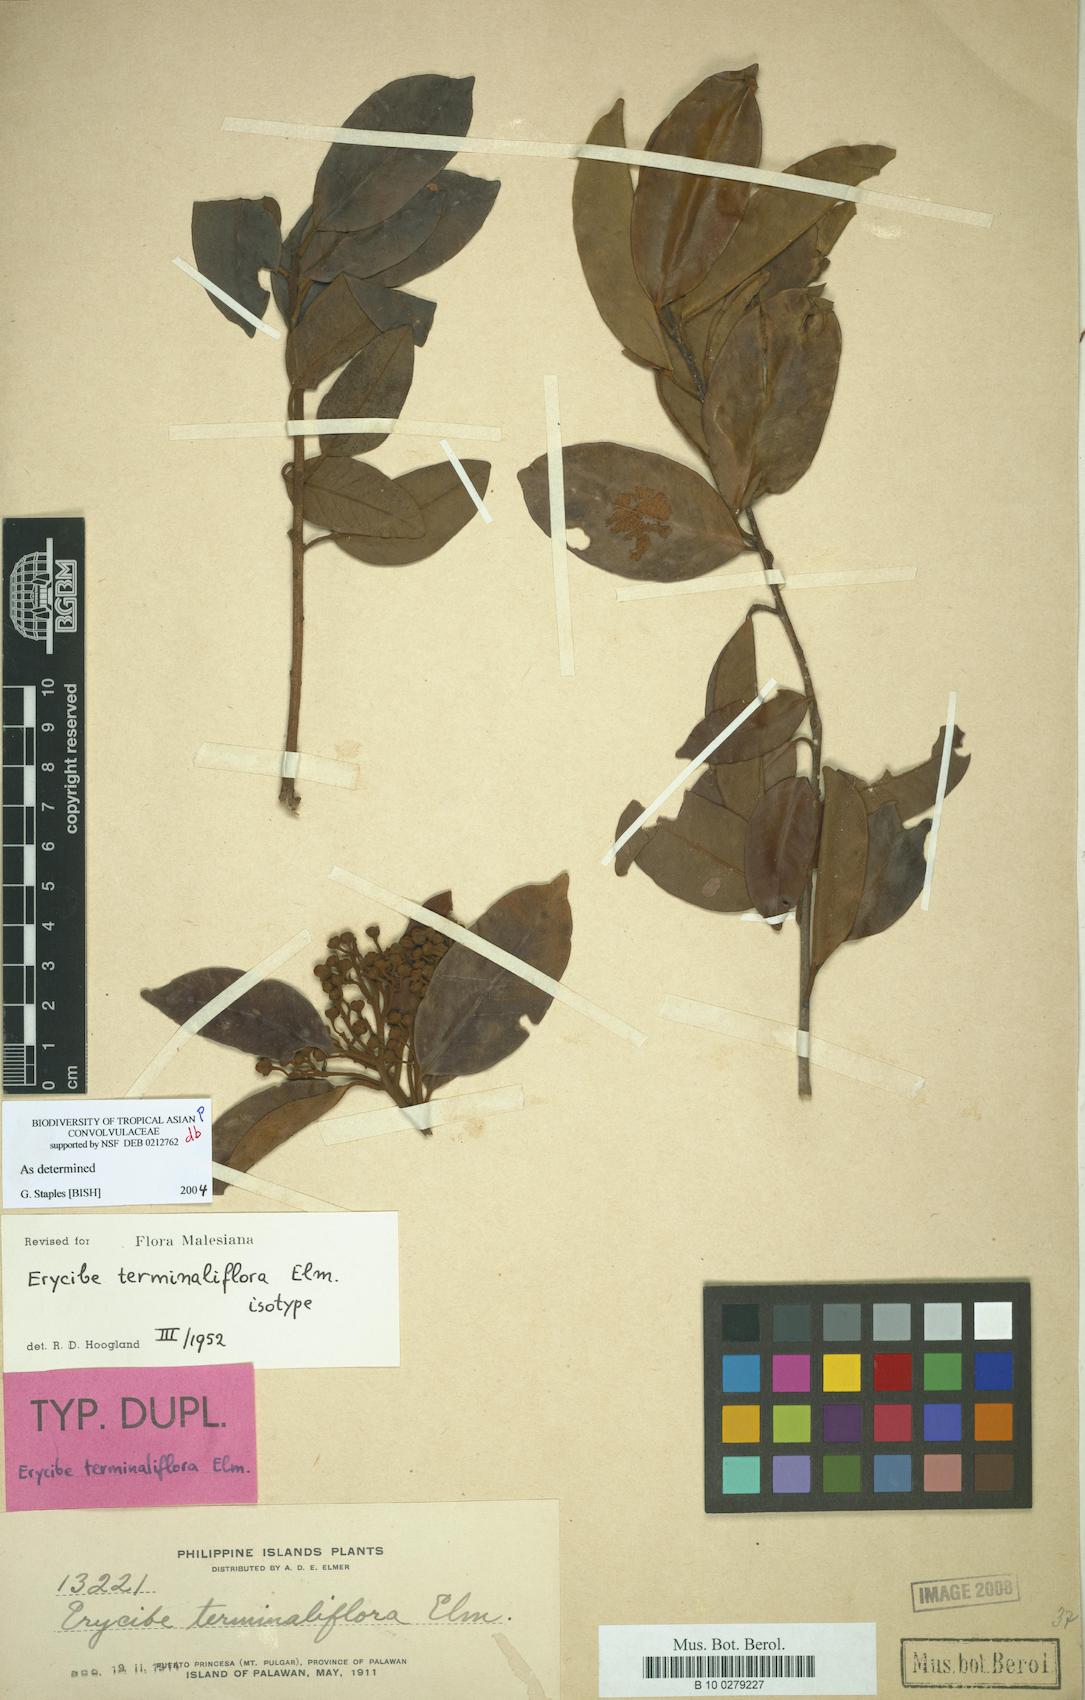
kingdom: Plantae
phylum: Tracheophyta
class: Magnoliopsida
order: Solanales
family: Convolvulaceae
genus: Erycibe
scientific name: Erycibe terminaliflora
